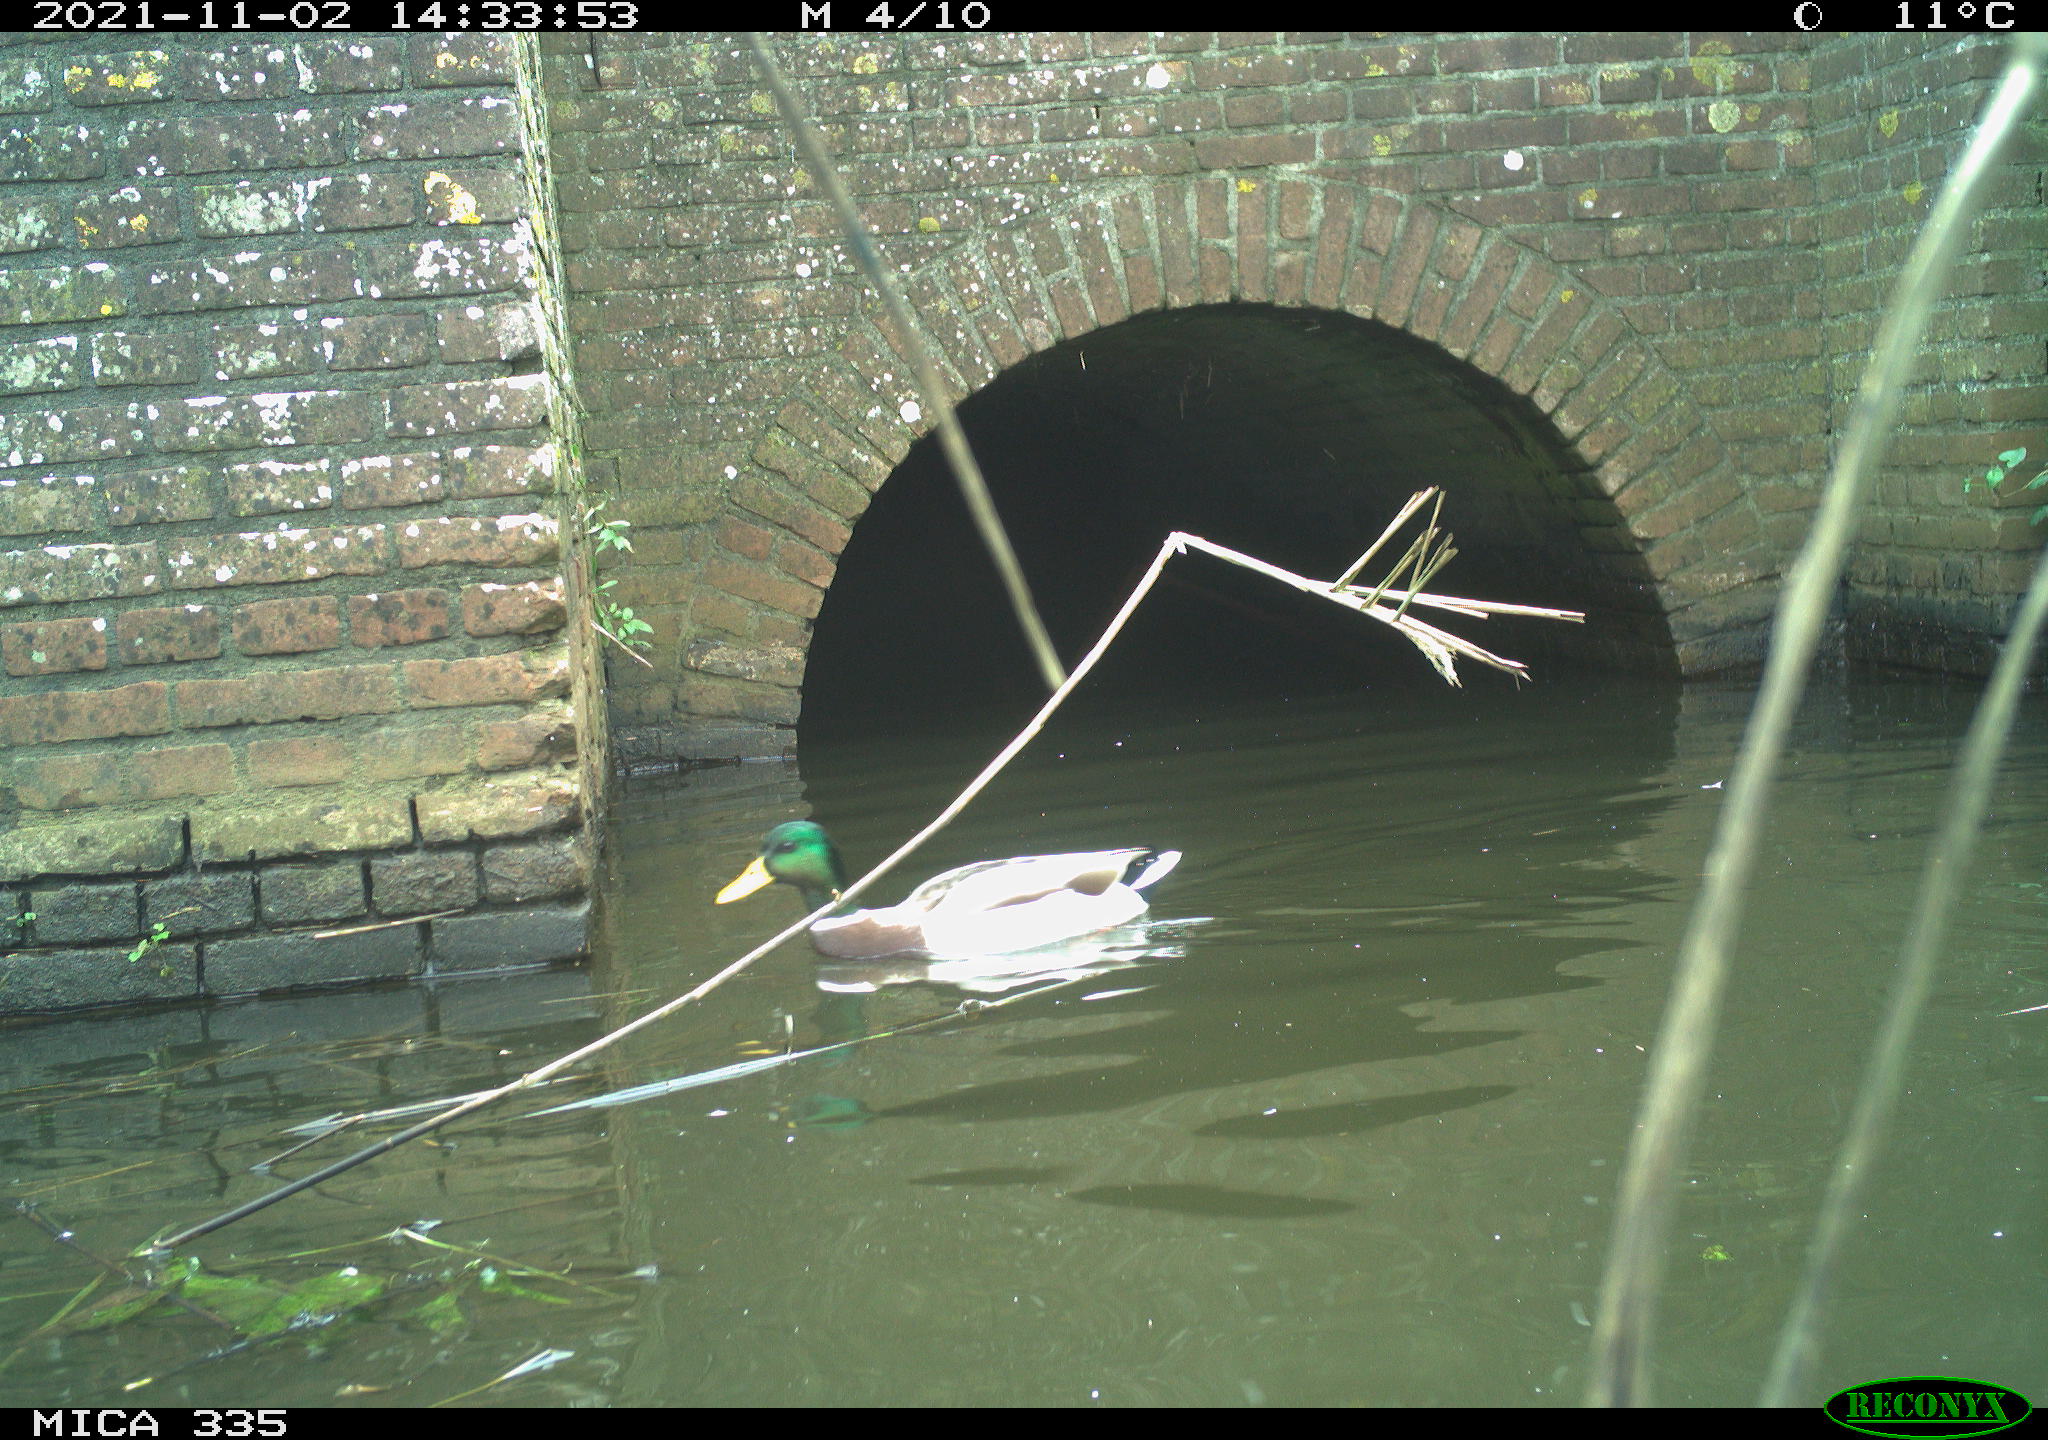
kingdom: Animalia
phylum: Chordata
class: Aves
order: Anseriformes
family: Anatidae
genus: Anas
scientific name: Anas platyrhynchos
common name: Mallard
